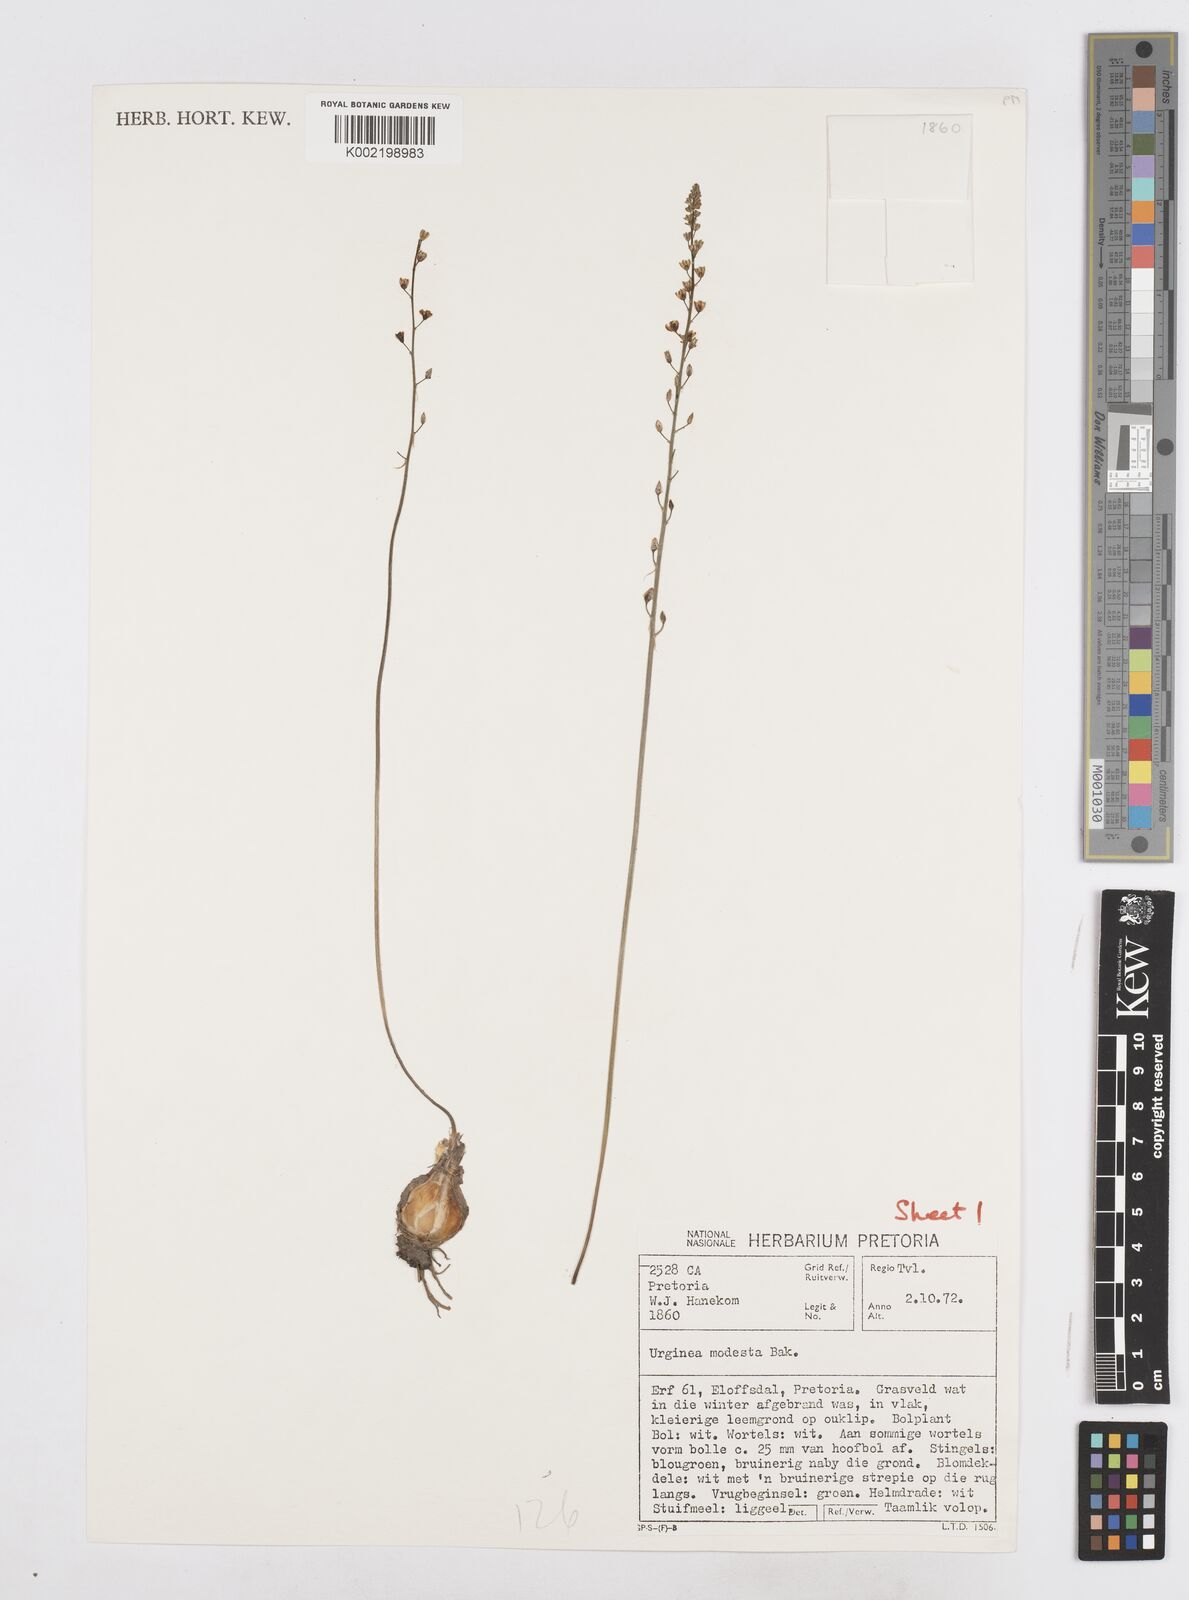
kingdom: Plantae
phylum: Tracheophyta
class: Liliopsida
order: Asparagales
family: Asparagaceae
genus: Drimia
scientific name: Drimia modesta
